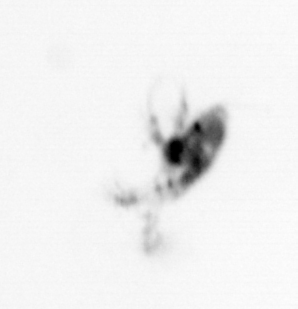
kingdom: Animalia
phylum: Arthropoda
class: Copepoda
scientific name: Copepoda
